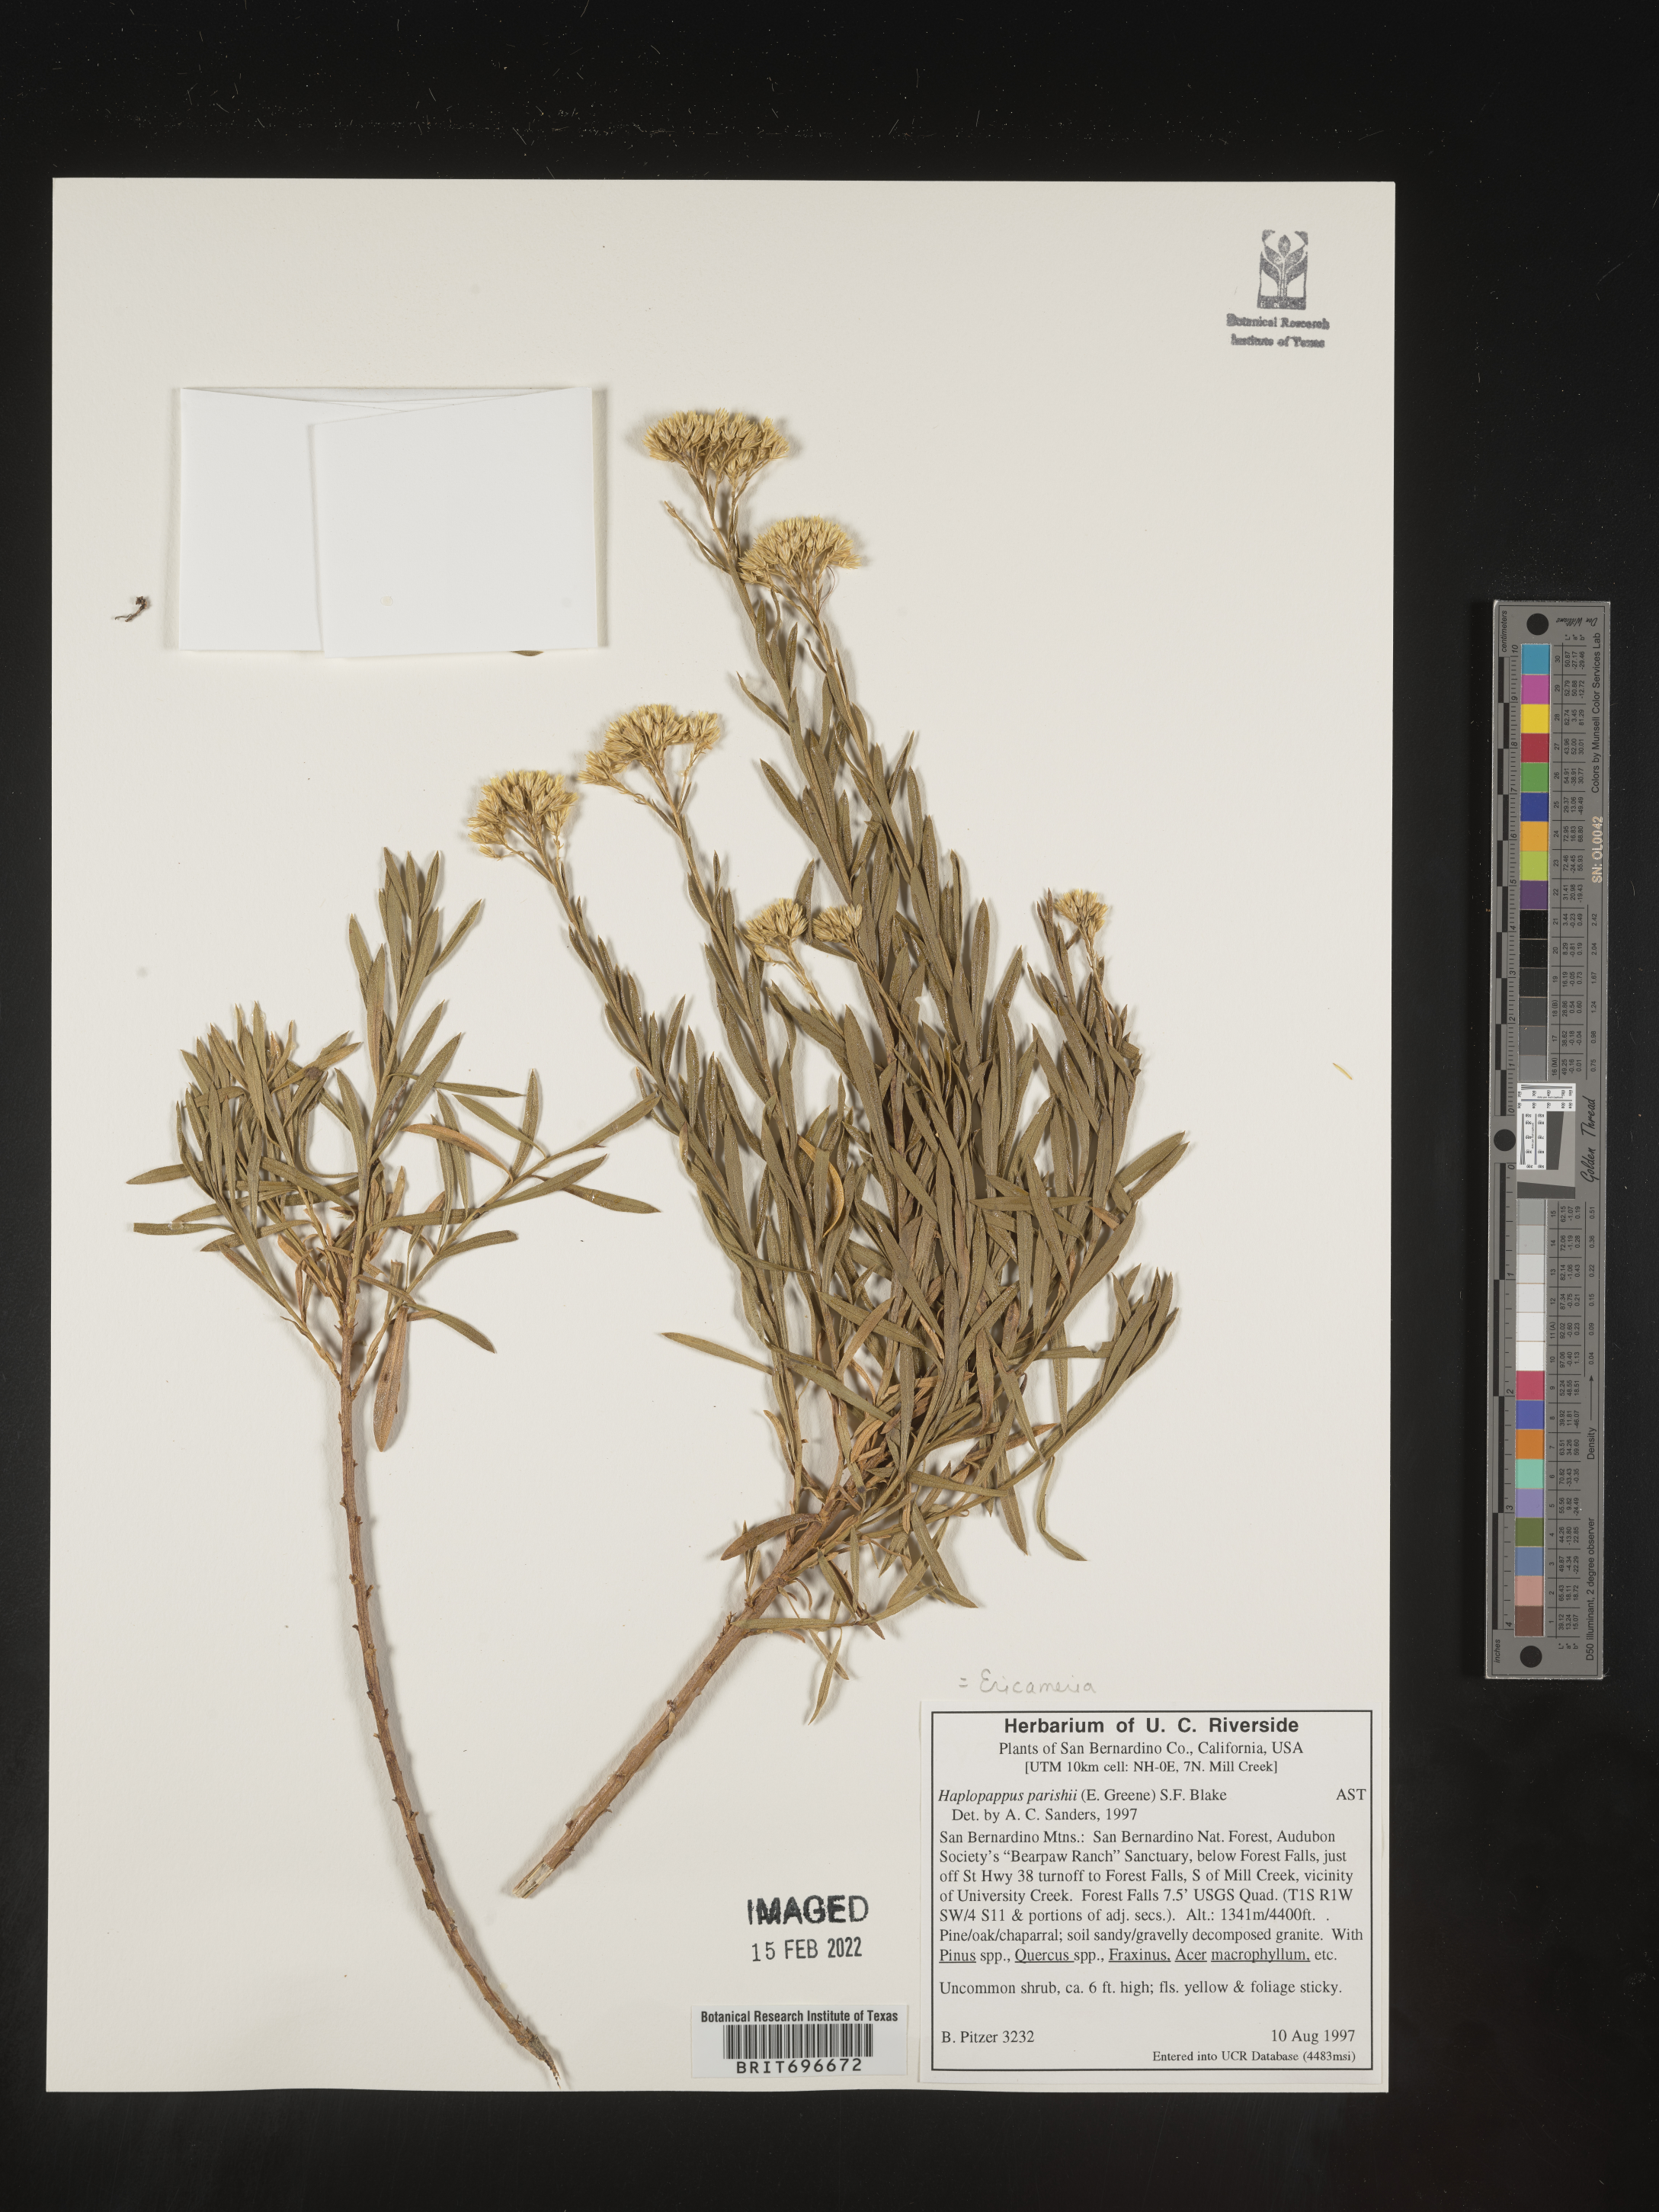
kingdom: Plantae
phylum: Tracheophyta
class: Magnoliopsida
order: Asterales
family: Asteraceae
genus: Ericameria
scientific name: Ericameria parishii
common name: Parish's goldenbush
